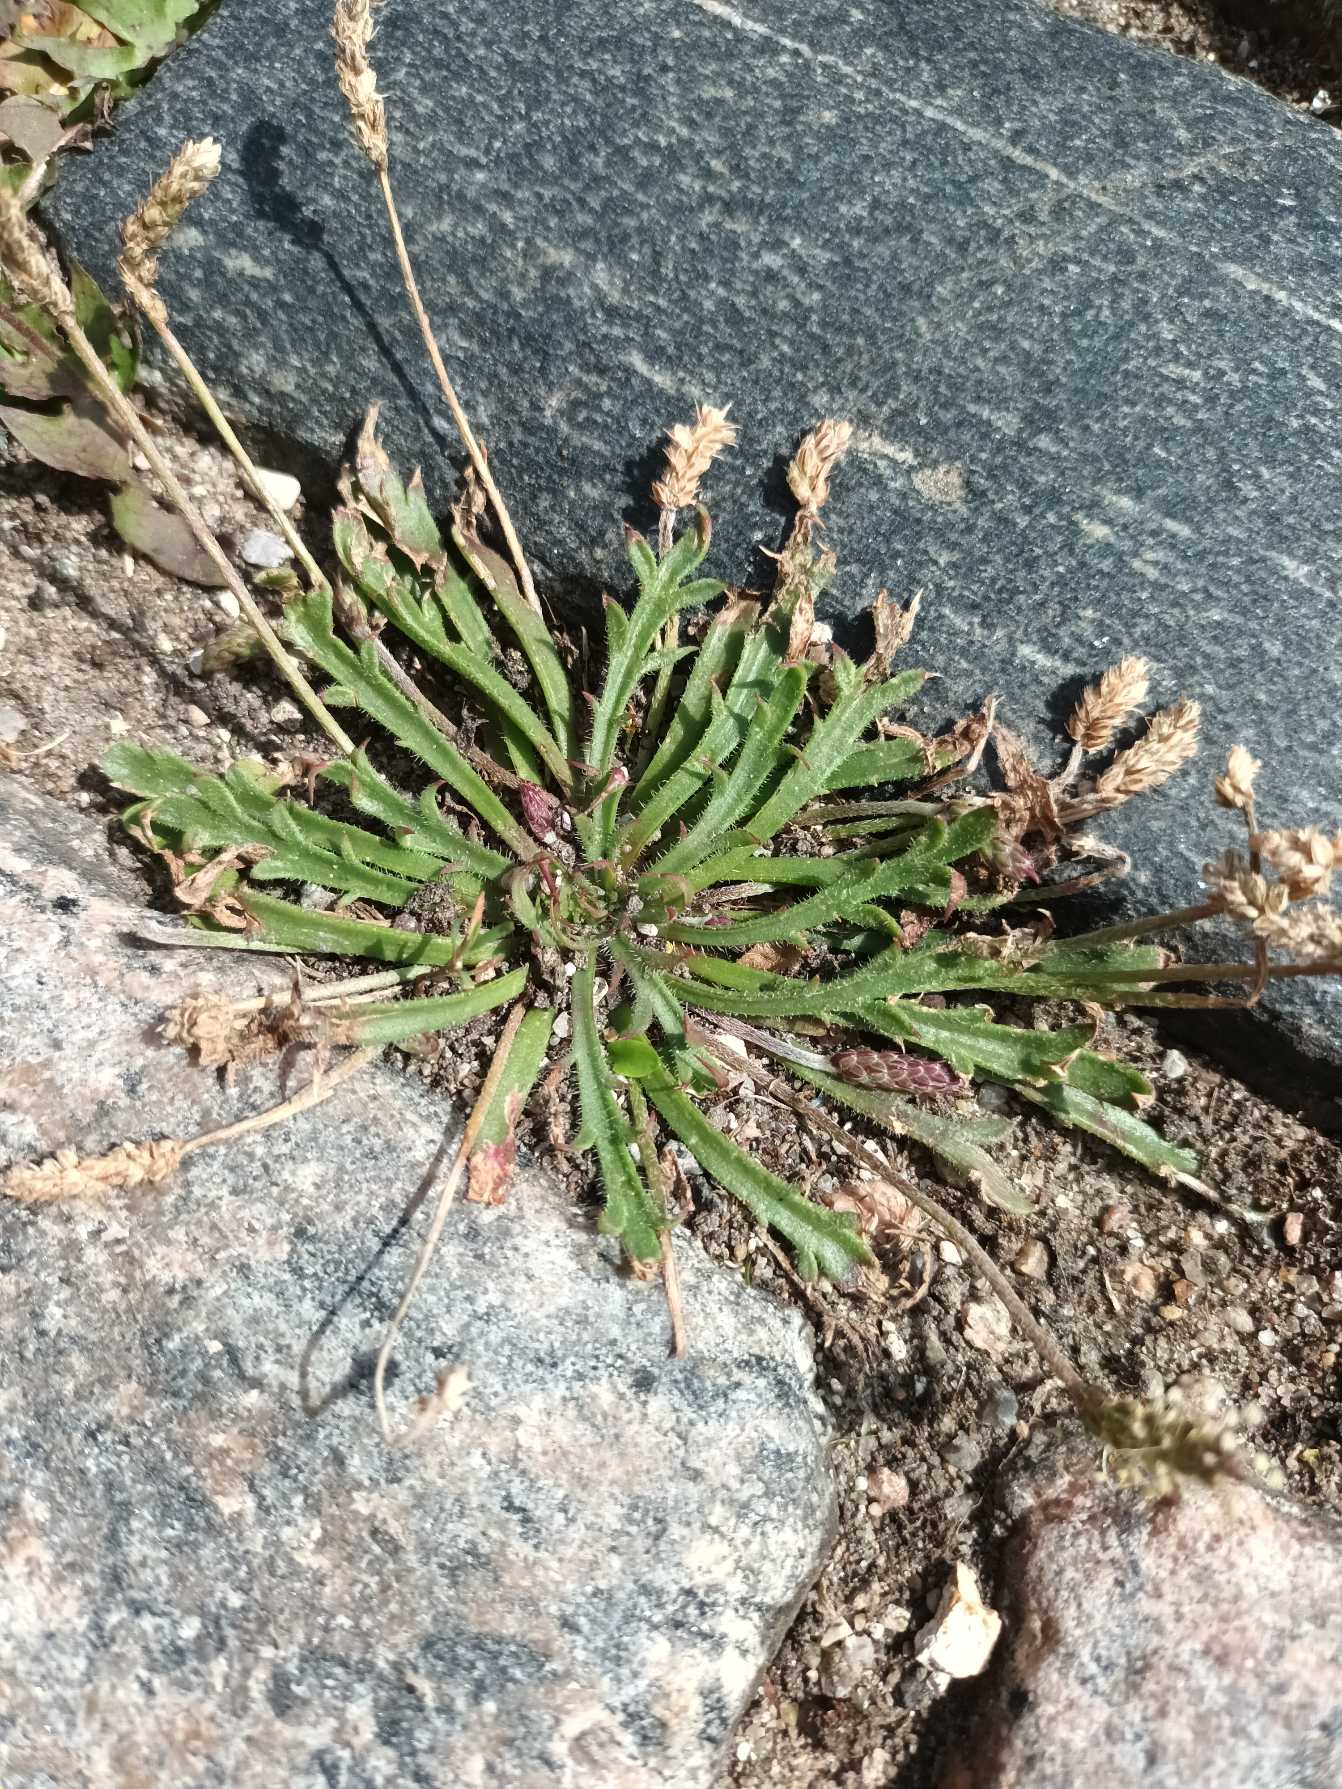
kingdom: Plantae
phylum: Tracheophyta
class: Magnoliopsida
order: Lamiales
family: Plantaginaceae
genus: Plantago
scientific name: Plantago coronopus
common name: Fliget vejbred
